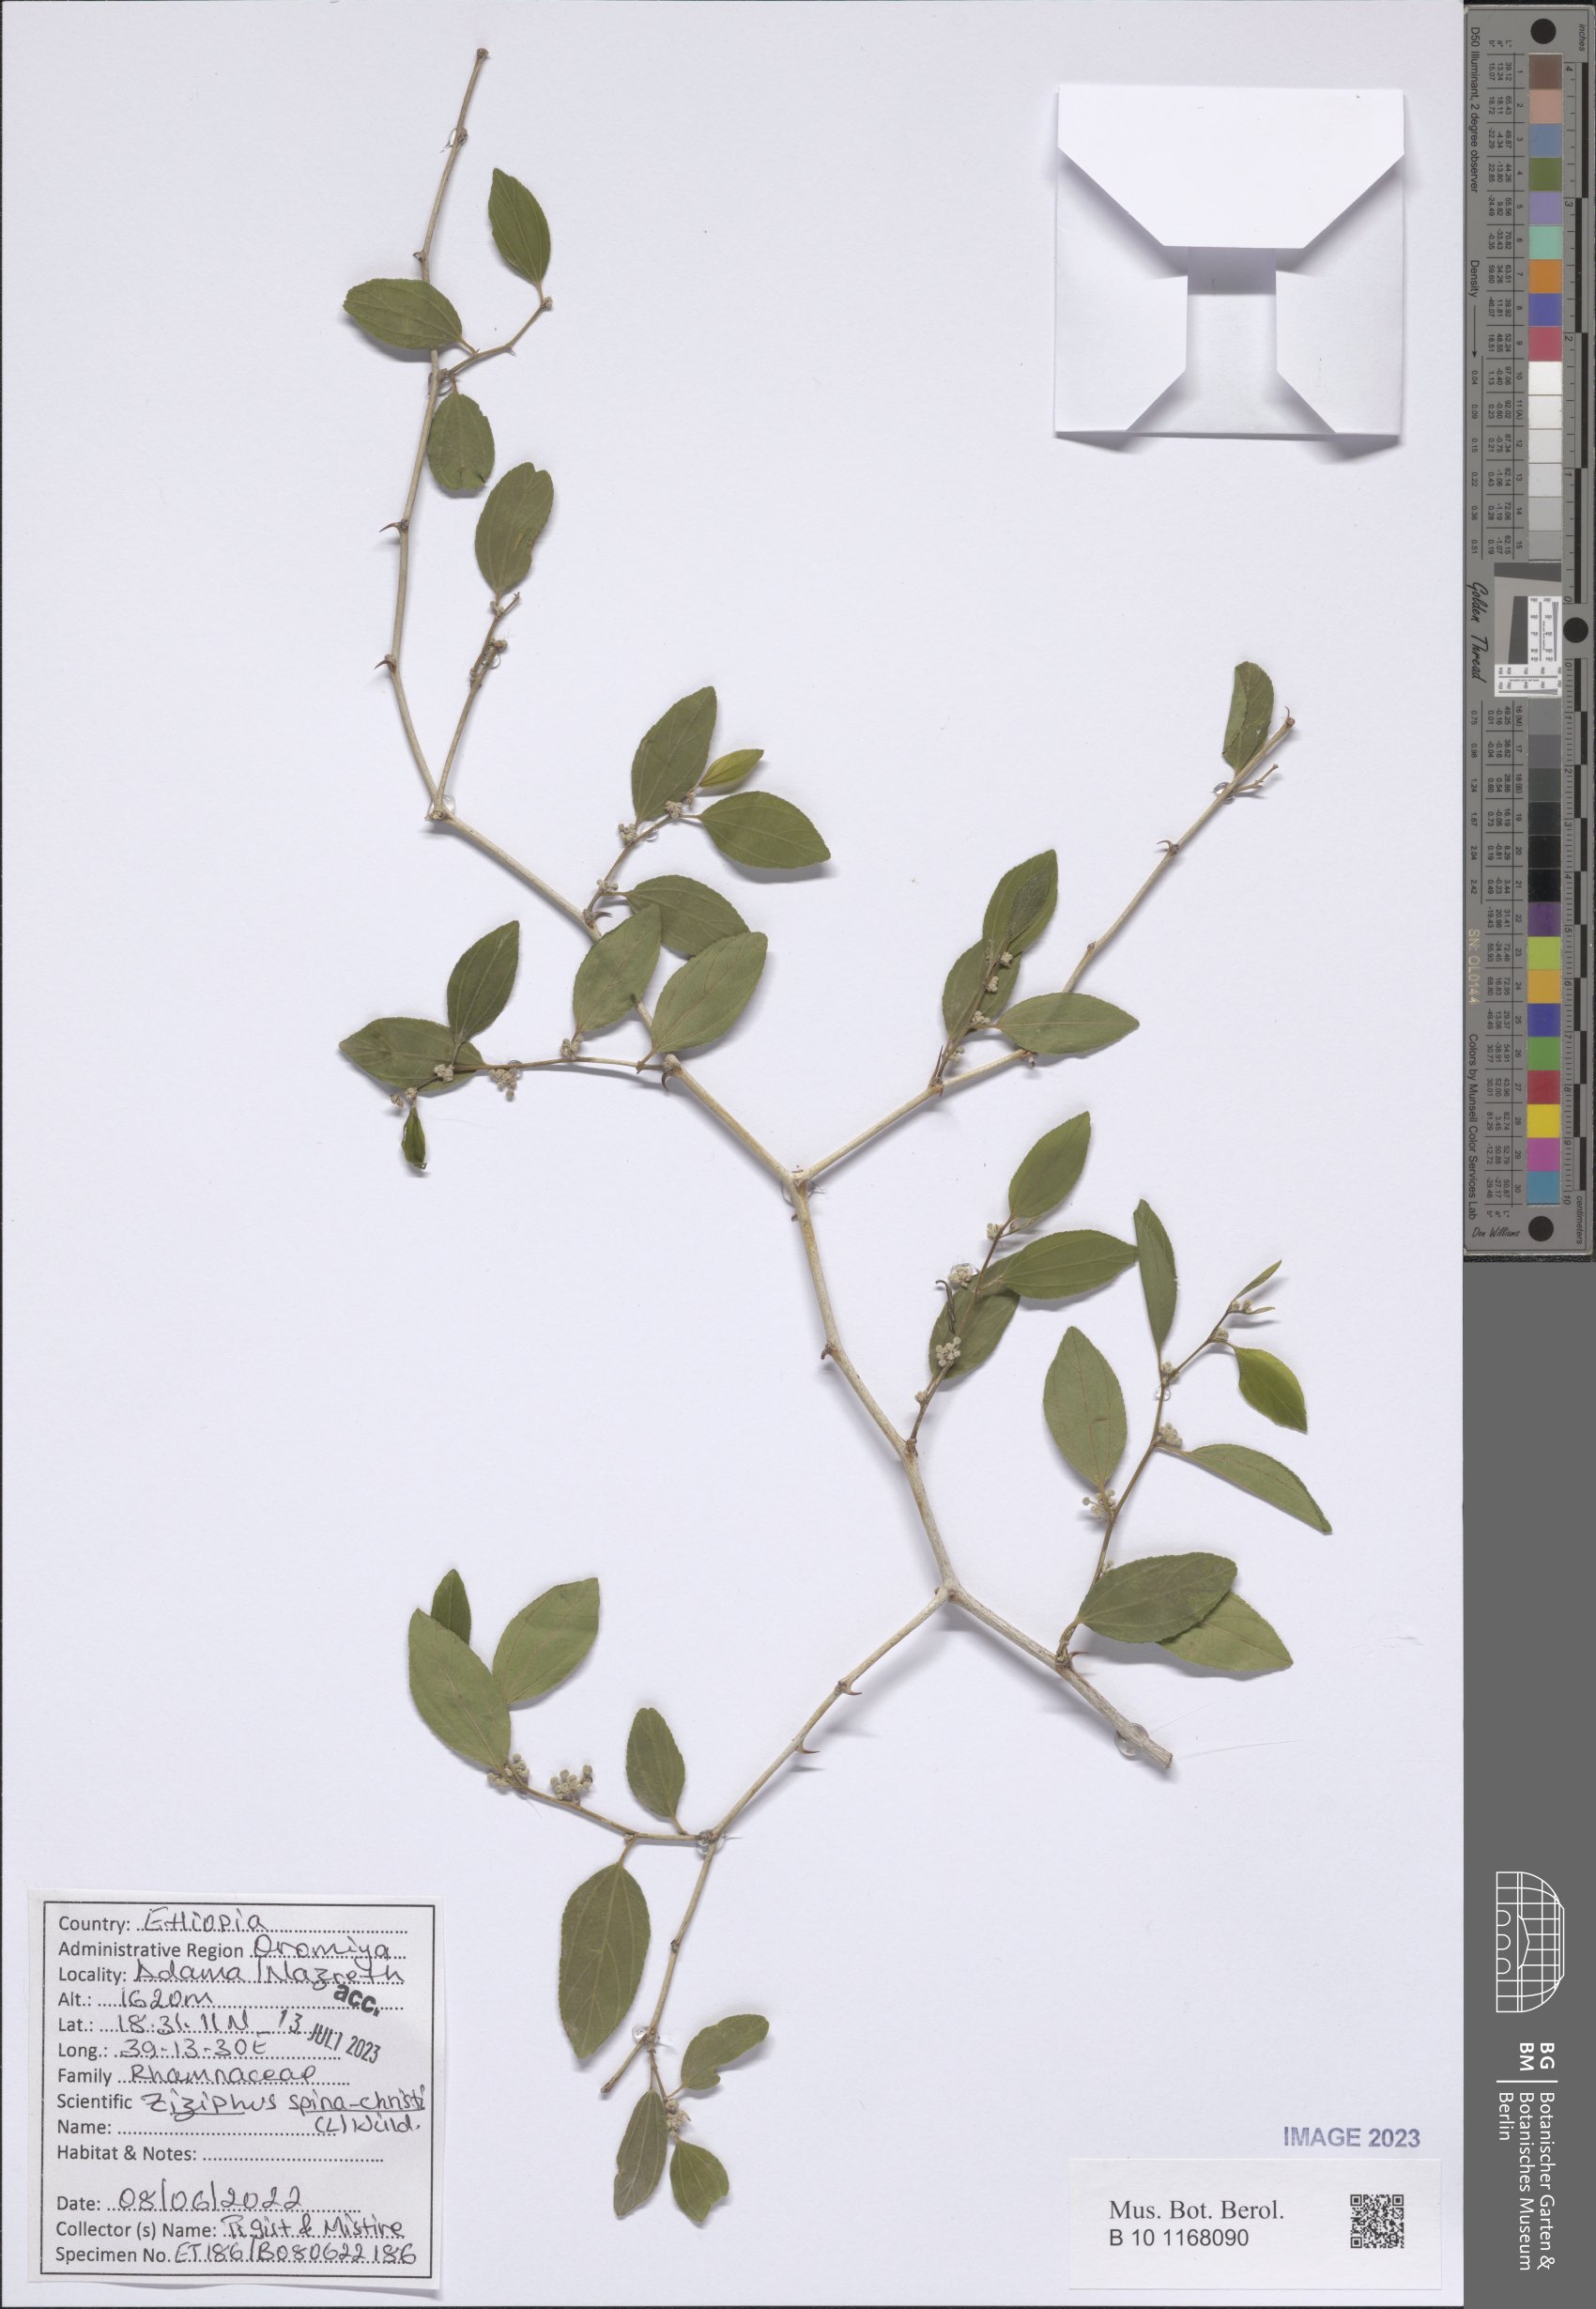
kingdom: Plantae
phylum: Tracheophyta
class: Magnoliopsida
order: Rosales
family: Rhamnaceae
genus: Ziziphus
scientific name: Ziziphus spina-christi
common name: Syrian christ-thorn
